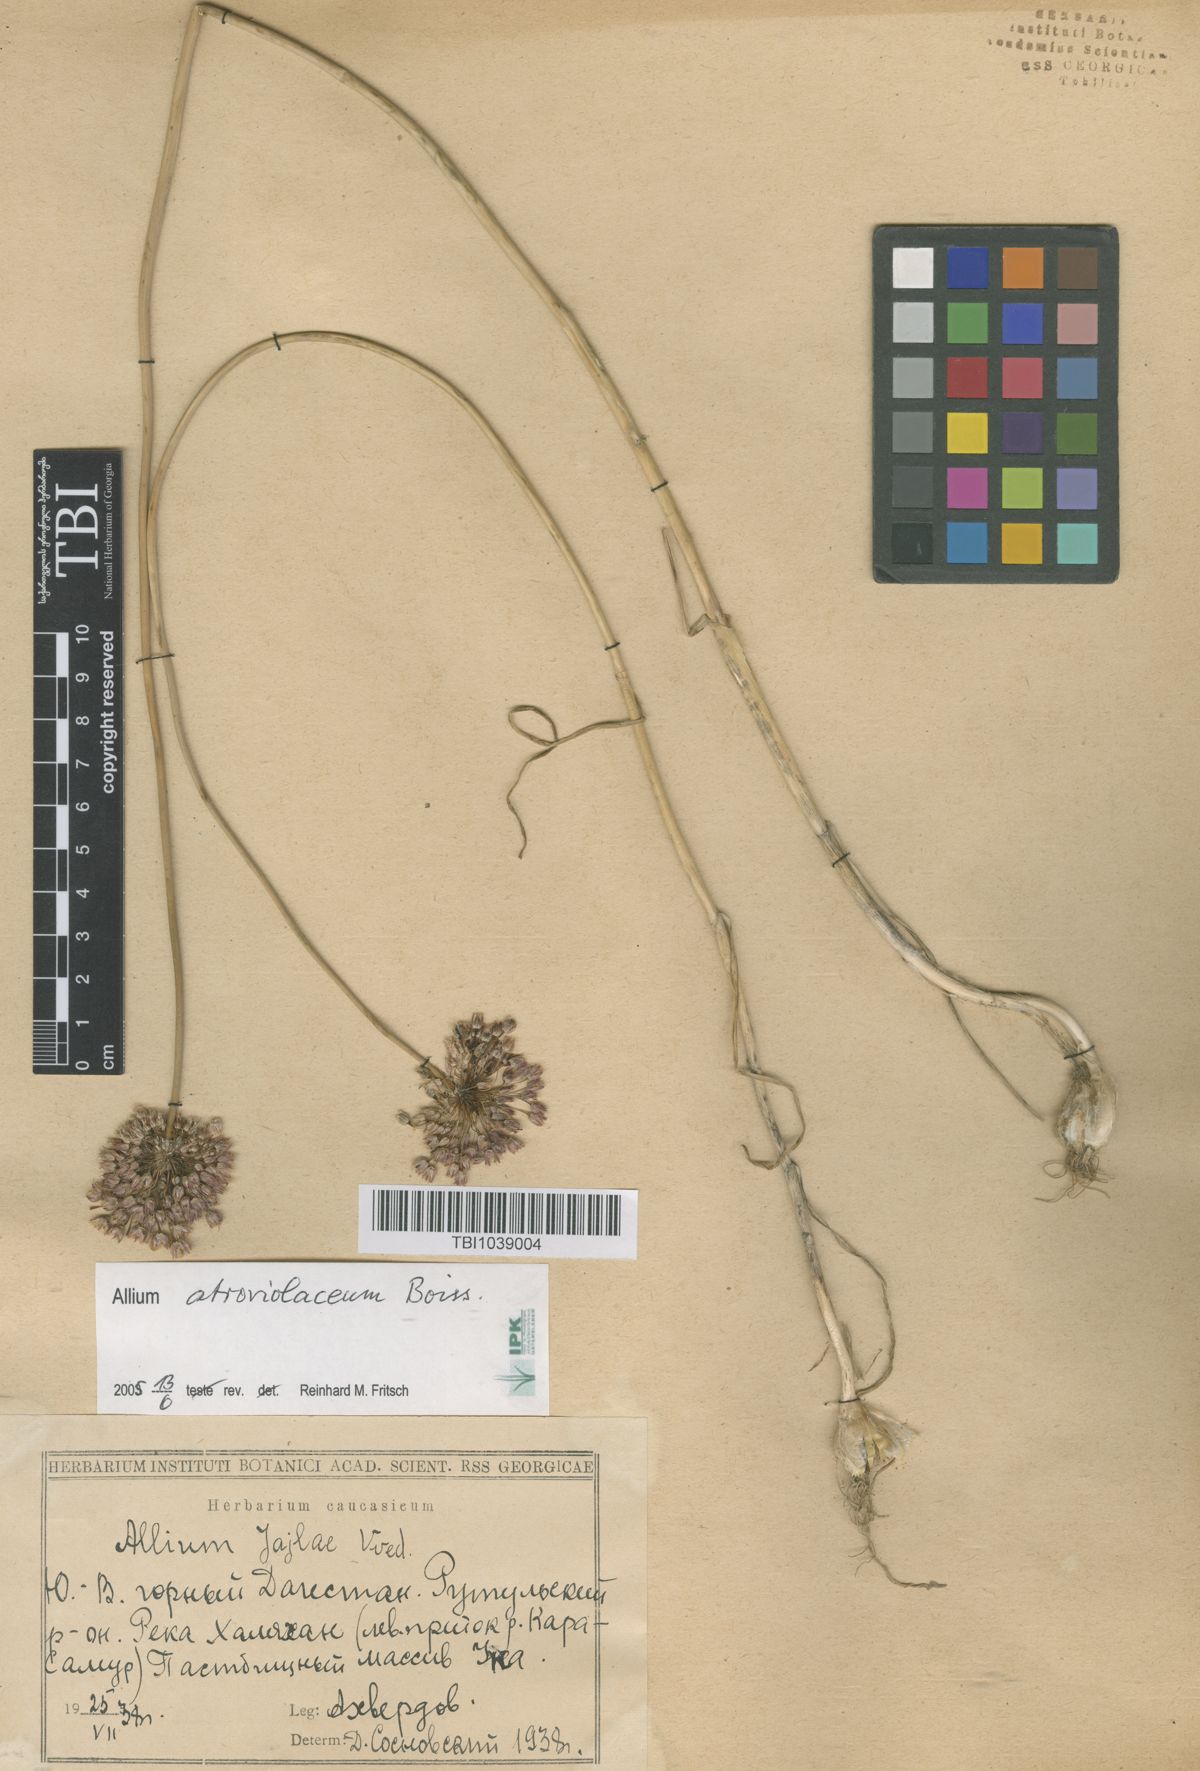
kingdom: Plantae
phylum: Tracheophyta
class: Liliopsida
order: Asparagales
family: Amaryllidaceae
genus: Allium
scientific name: Allium rotundum
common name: Sand leek
